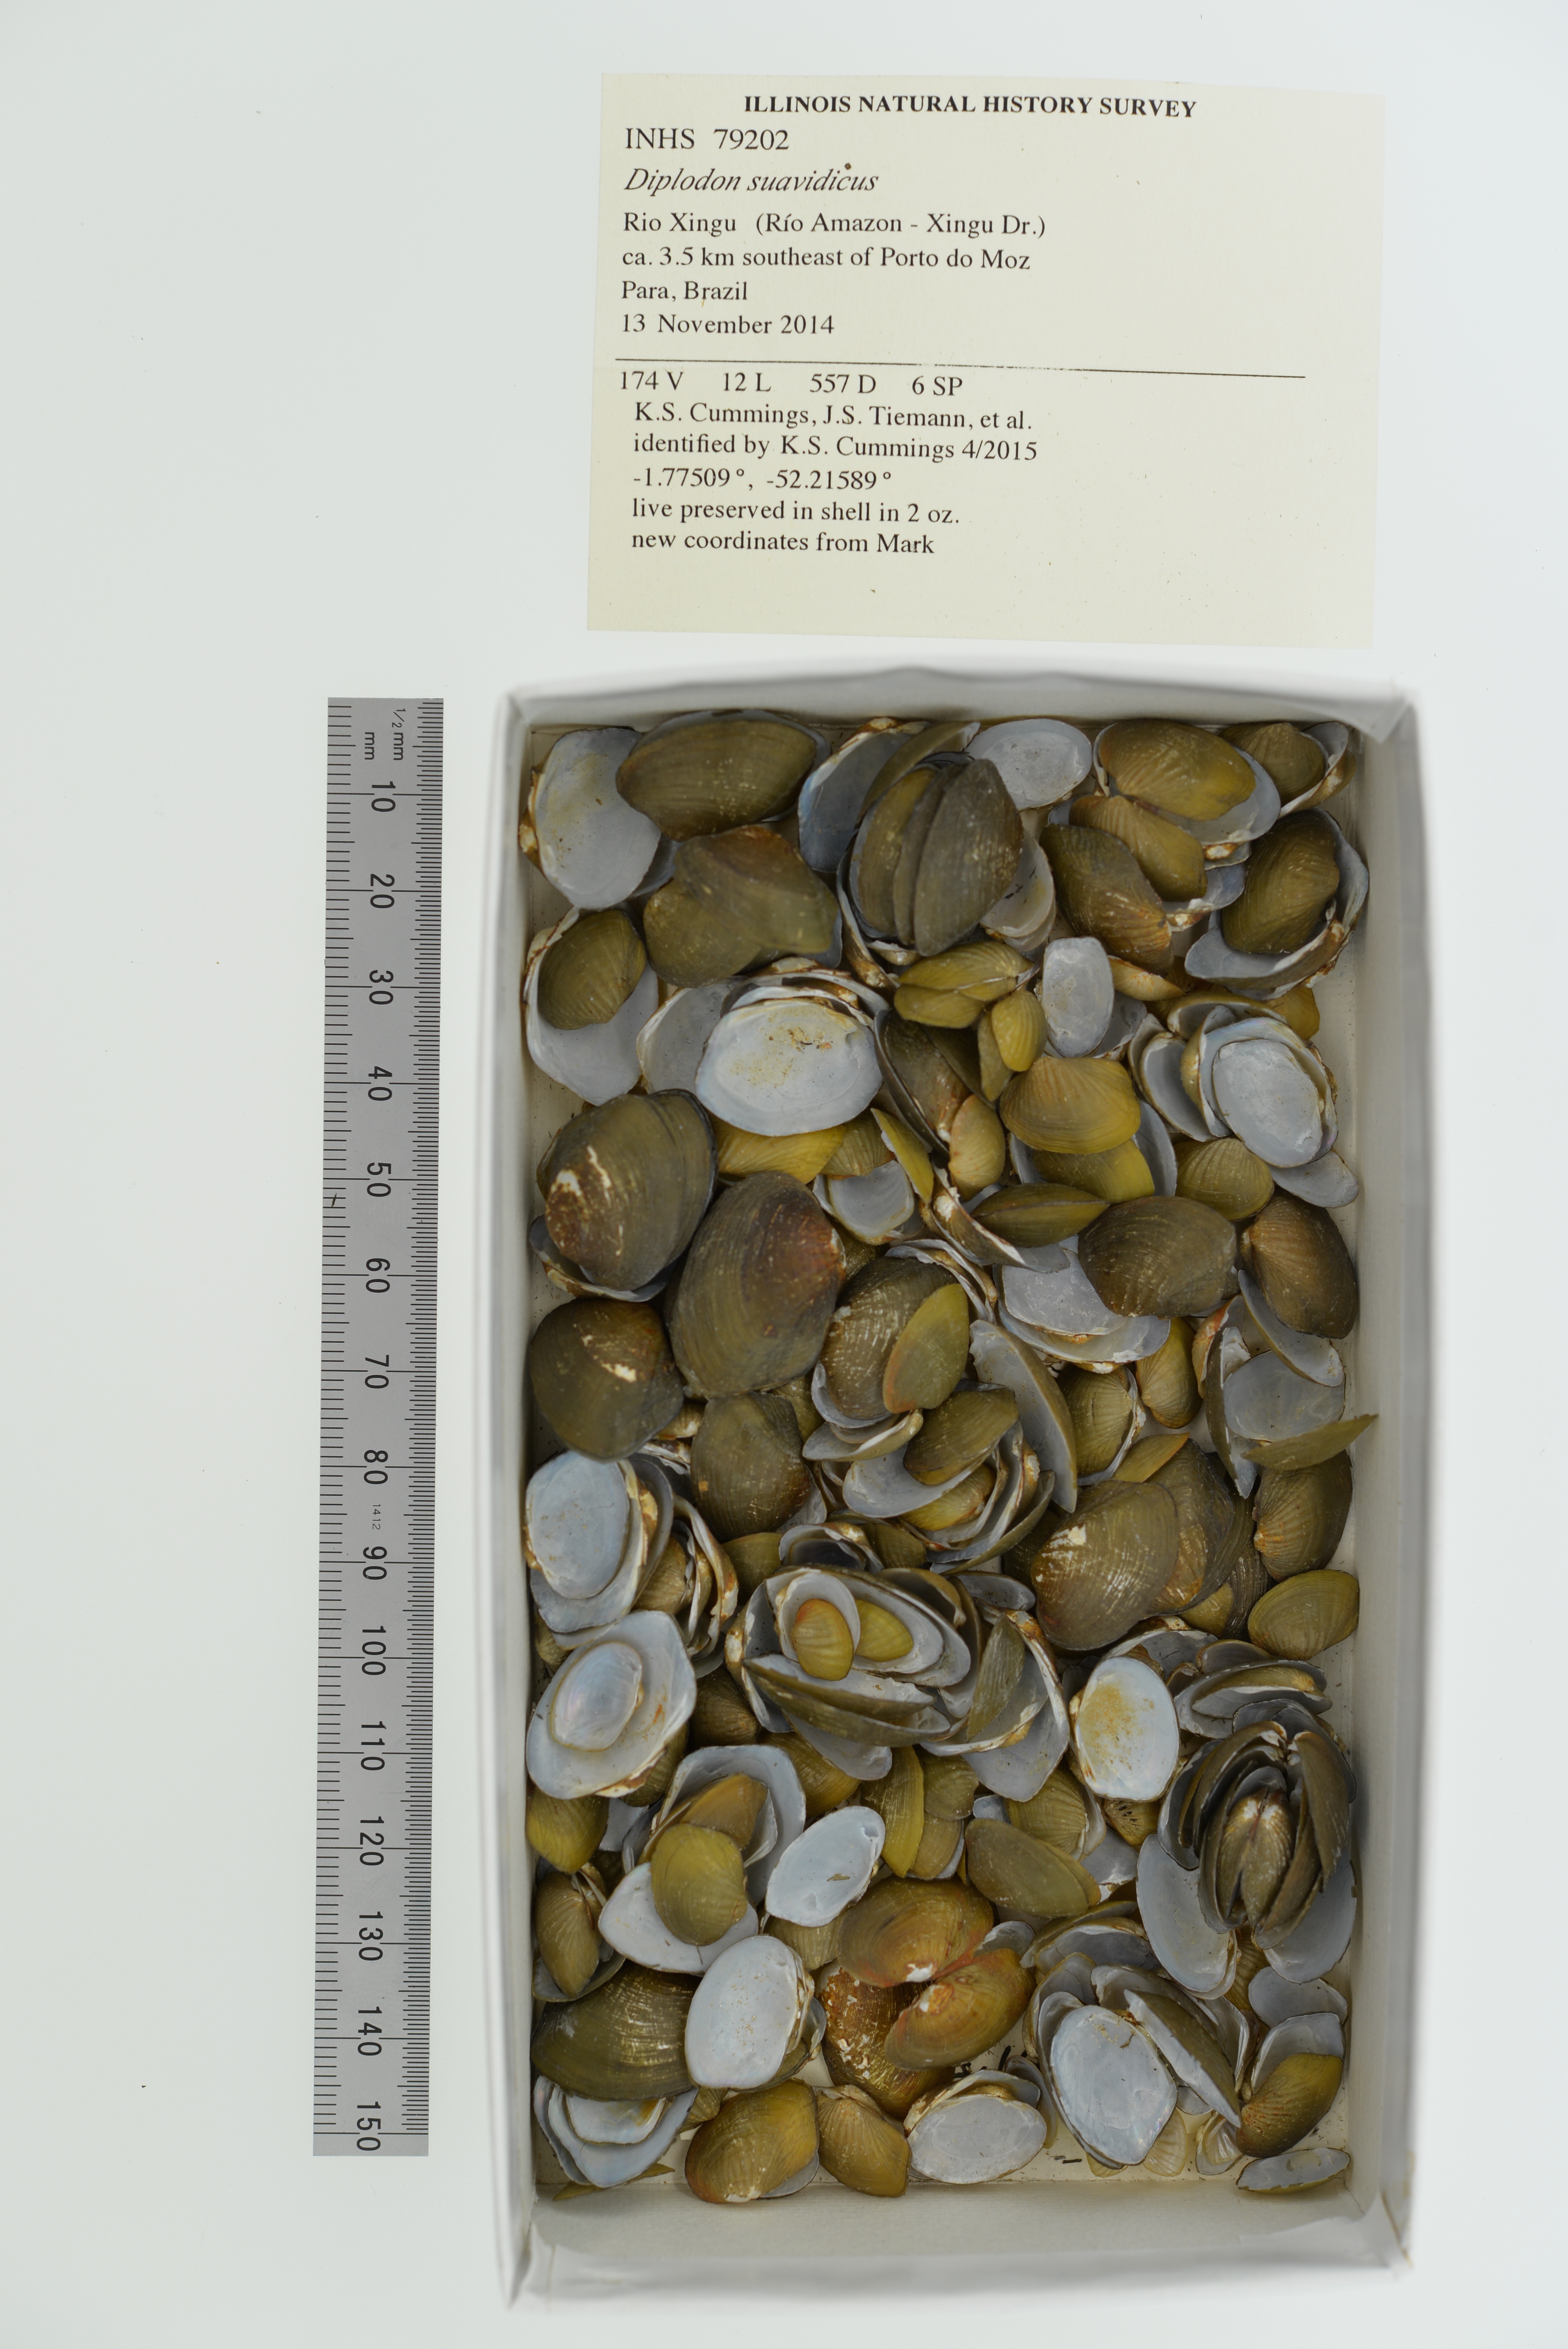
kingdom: Animalia
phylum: Mollusca
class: Bivalvia
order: Unionida
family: Hyriidae
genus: Diplodon
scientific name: Diplodon suavidicus
